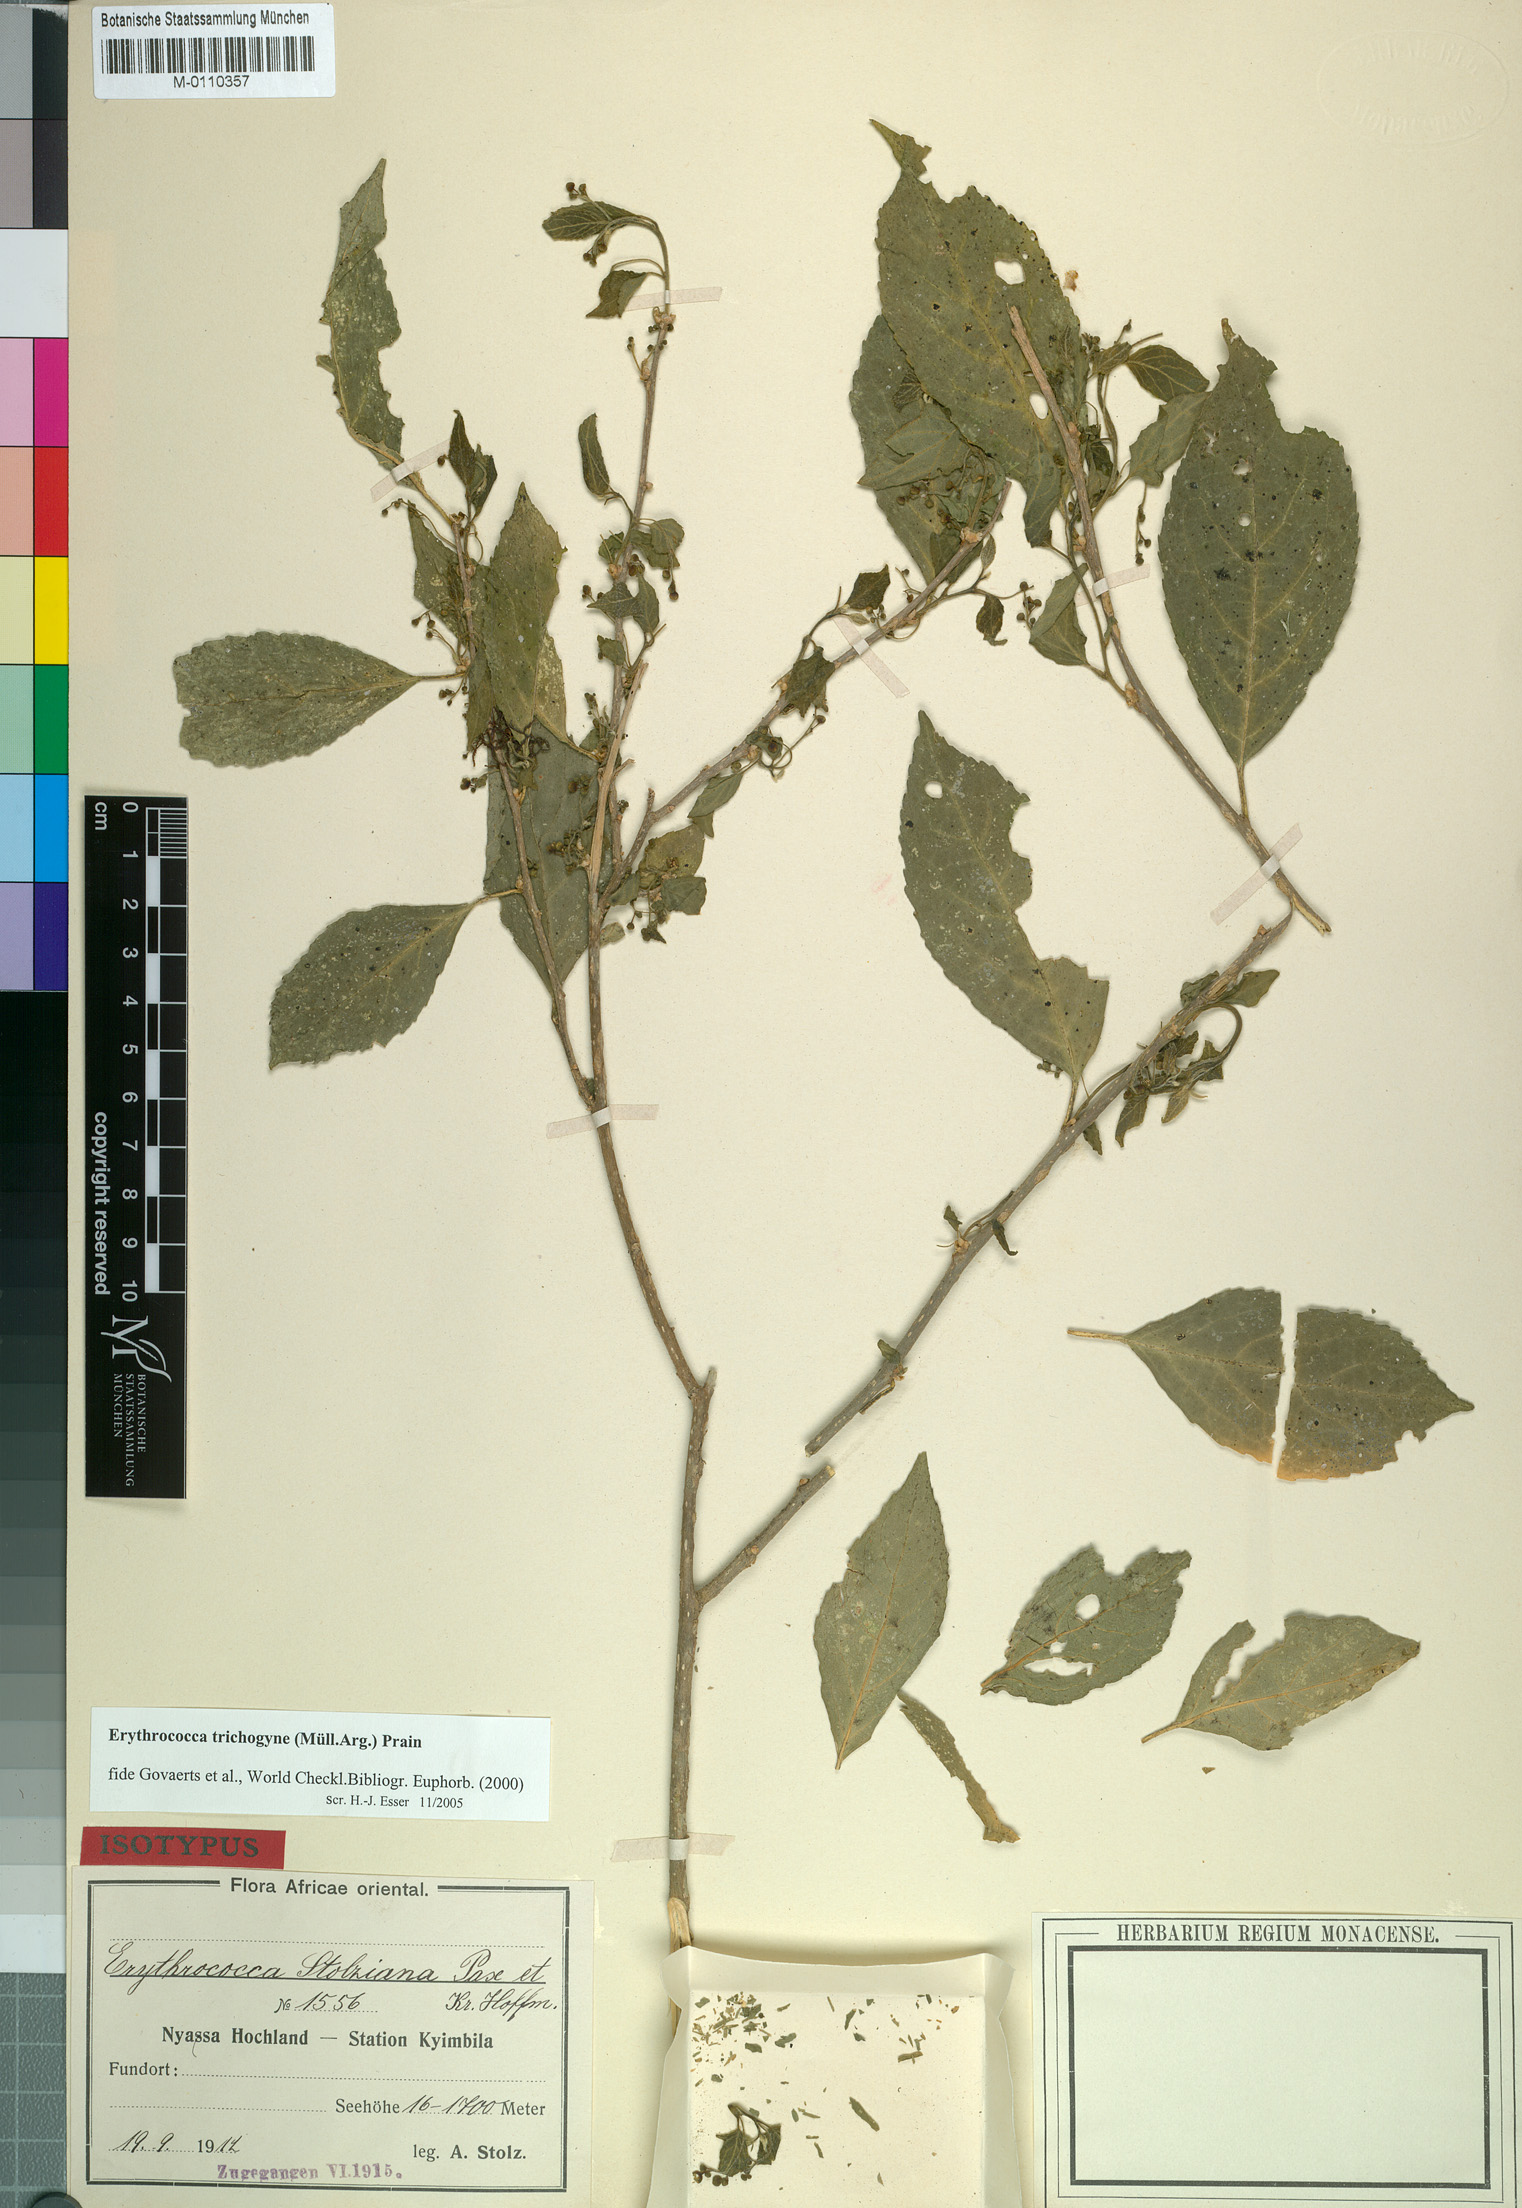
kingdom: Plantae
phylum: Tracheophyta
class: Magnoliopsida
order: Malpighiales
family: Euphorbiaceae
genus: Erythrococca
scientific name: Erythrococca trichogyne
